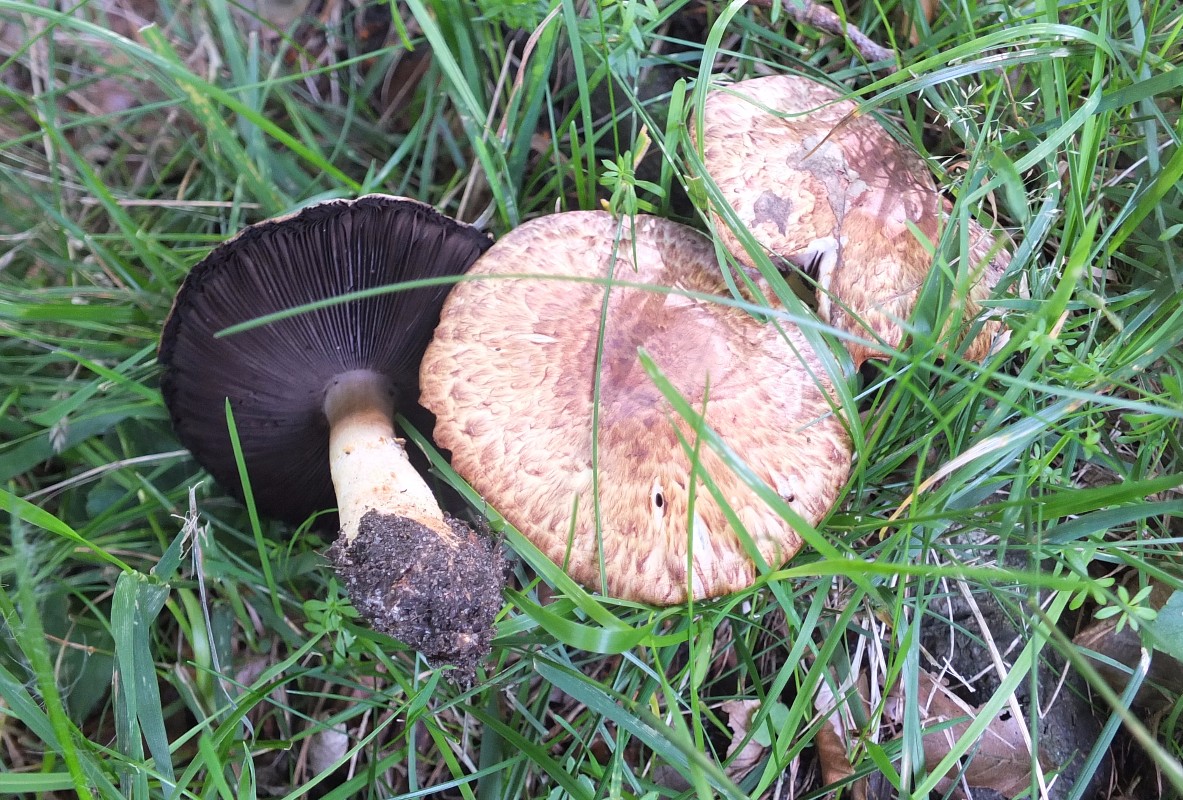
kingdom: Fungi
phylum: Basidiomycota
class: Agaricomycetes
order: Agaricales
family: Agaricaceae
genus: Agaricus
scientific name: Agaricus brunneolus
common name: purpur-champignon
